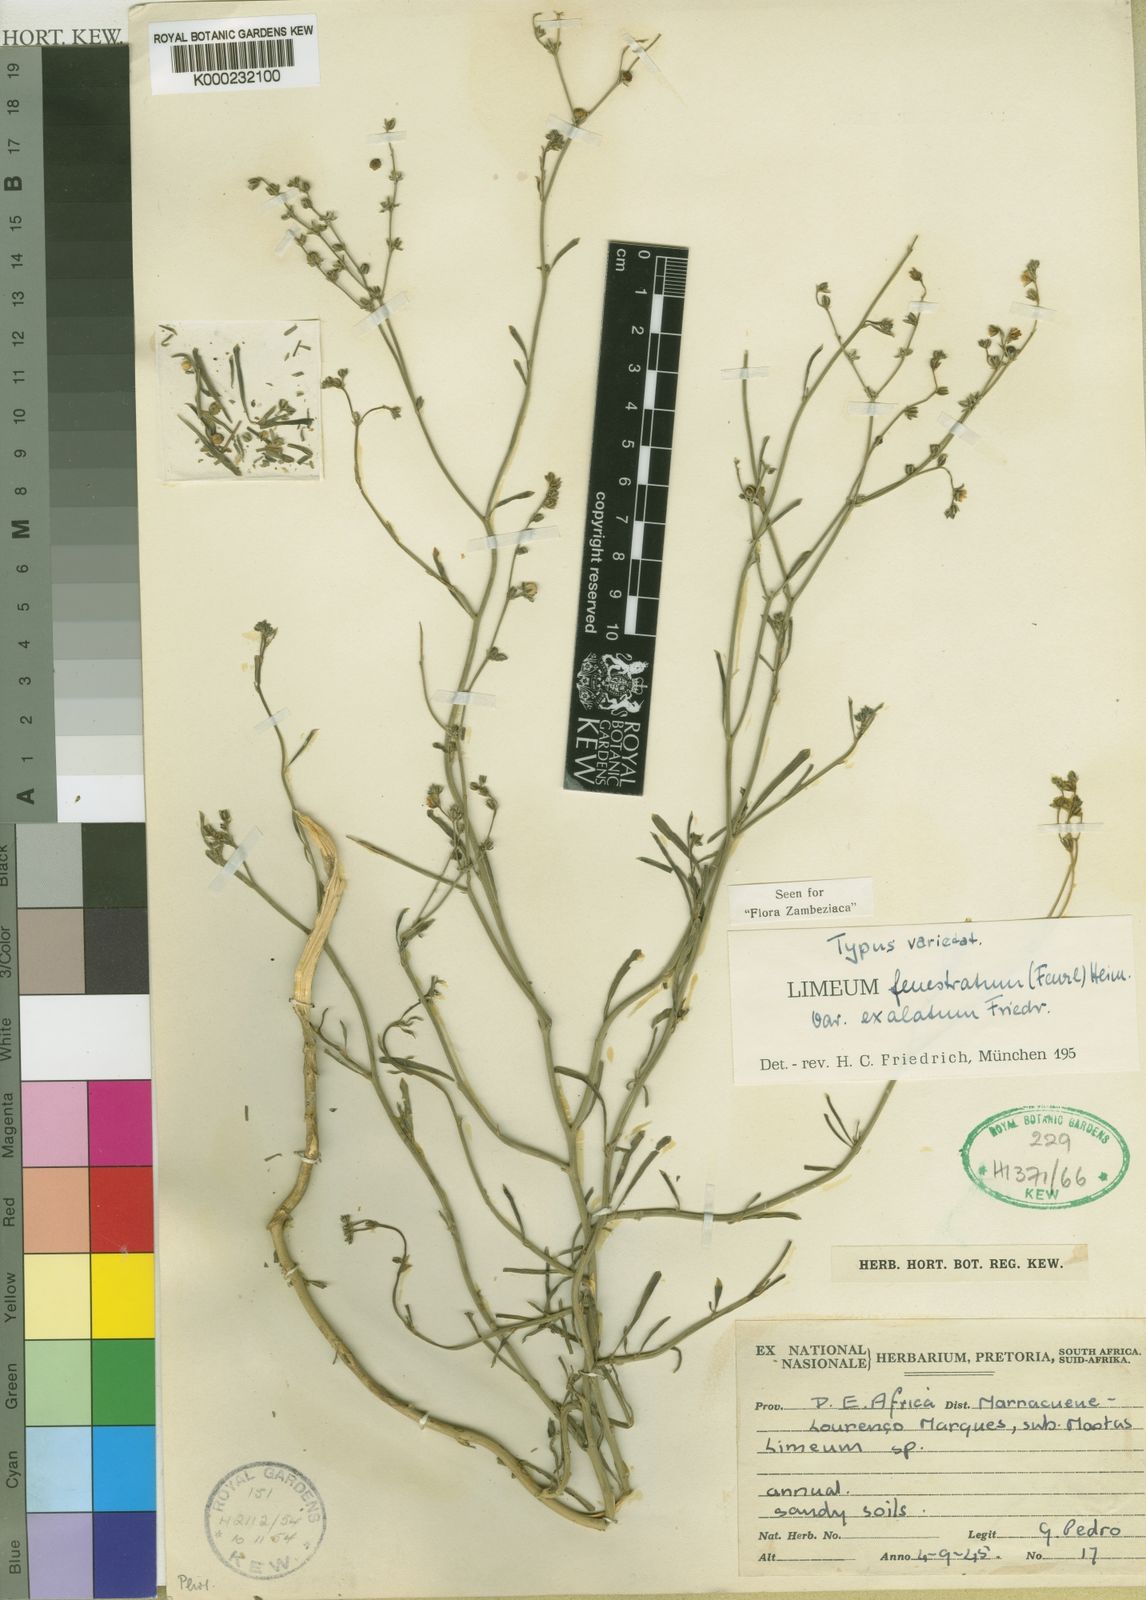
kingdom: Plantae
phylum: Tracheophyta
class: Magnoliopsida
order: Caryophyllales
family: Limeaceae
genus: Limeum
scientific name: Limeum fenestratum
